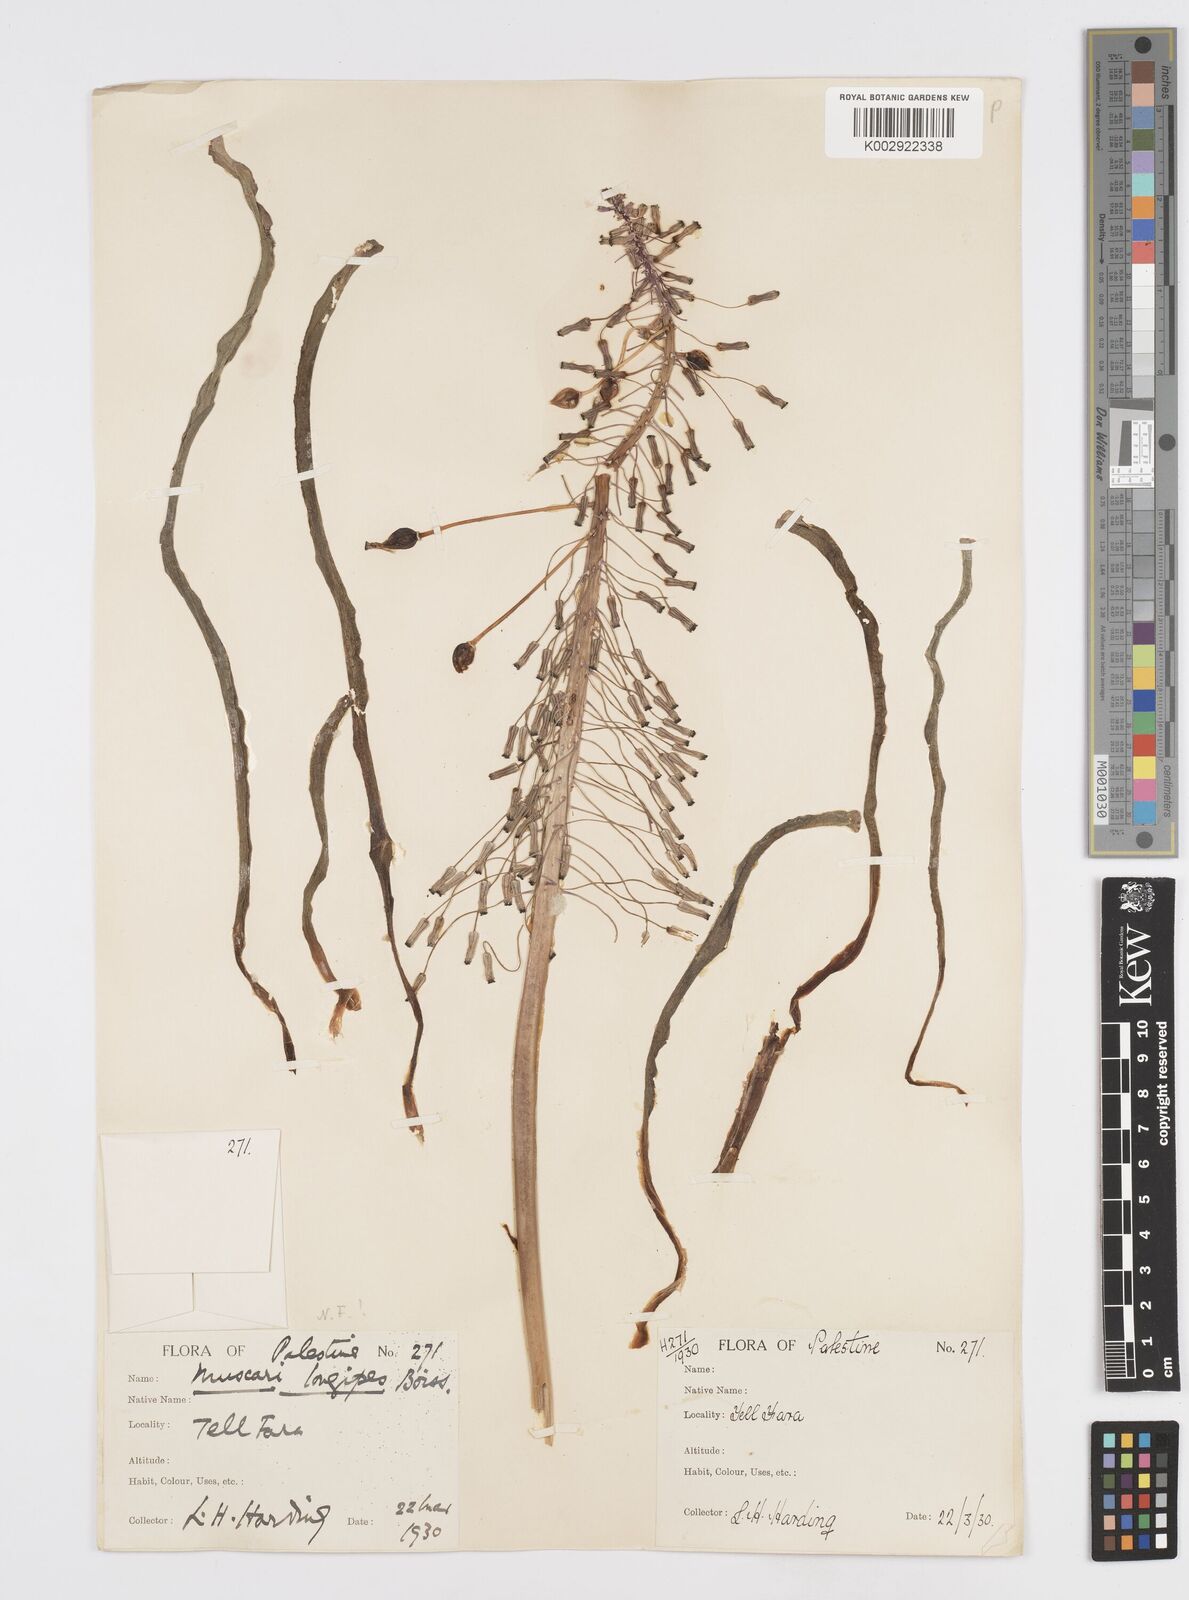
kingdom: Plantae
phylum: Tracheophyta
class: Liliopsida
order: Asparagales
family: Asparagaceae
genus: Muscari
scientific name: Muscari longipes
